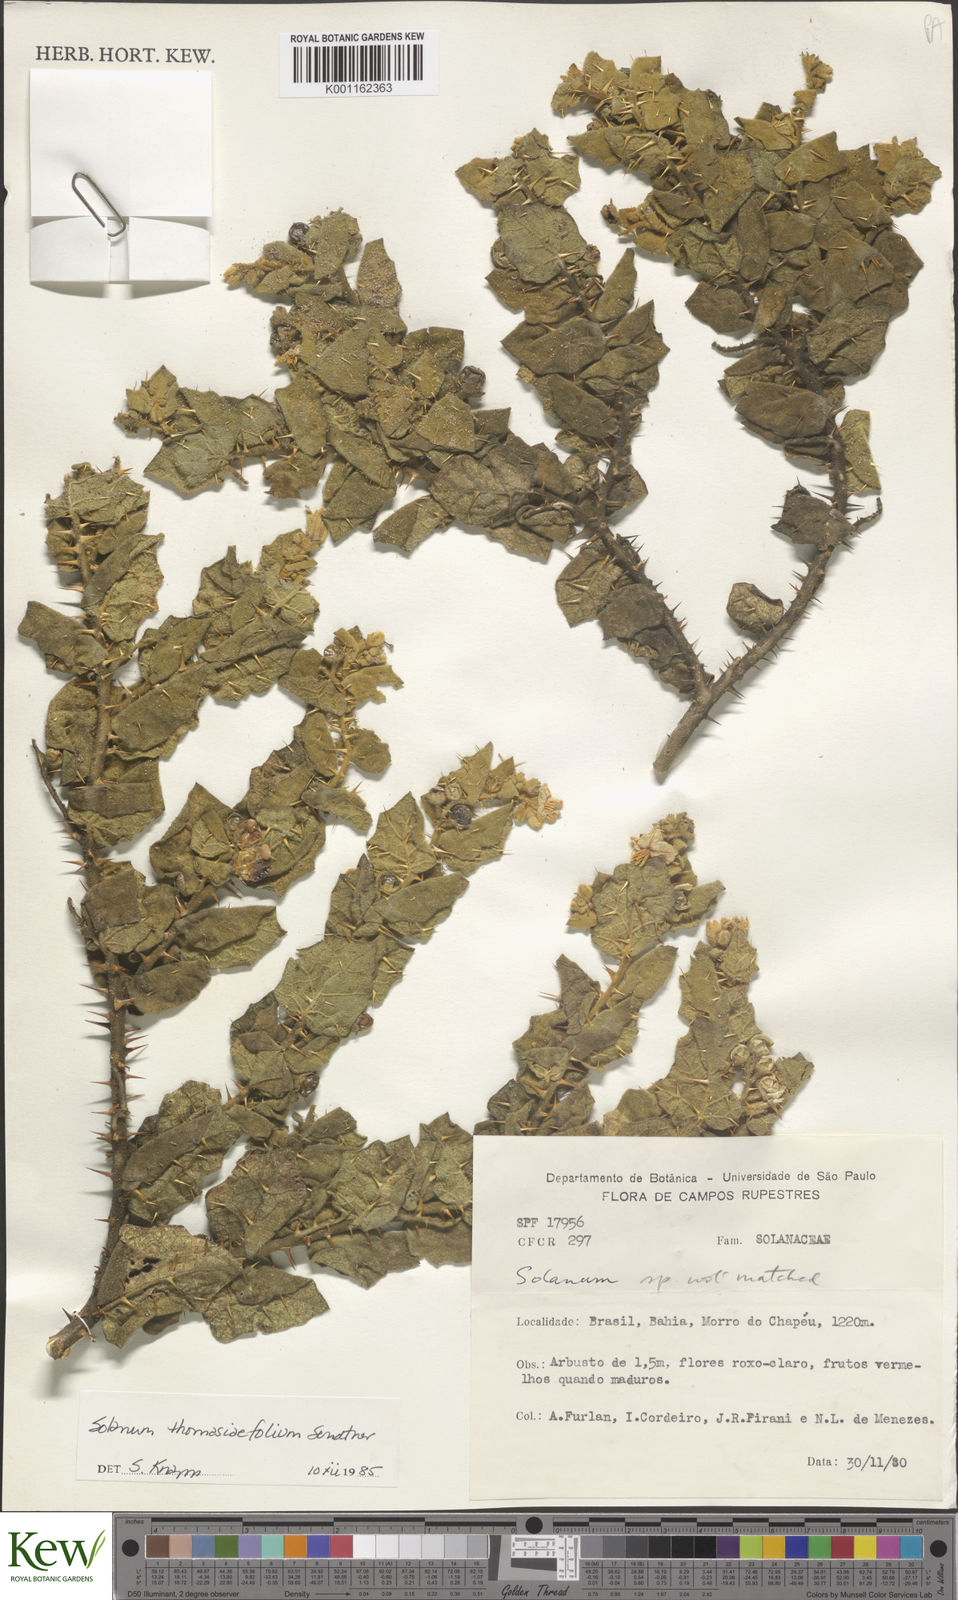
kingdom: Plantae
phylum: Tracheophyta
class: Magnoliopsida
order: Solanales
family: Solanaceae
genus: Solanum
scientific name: Solanum thomasiifolium
